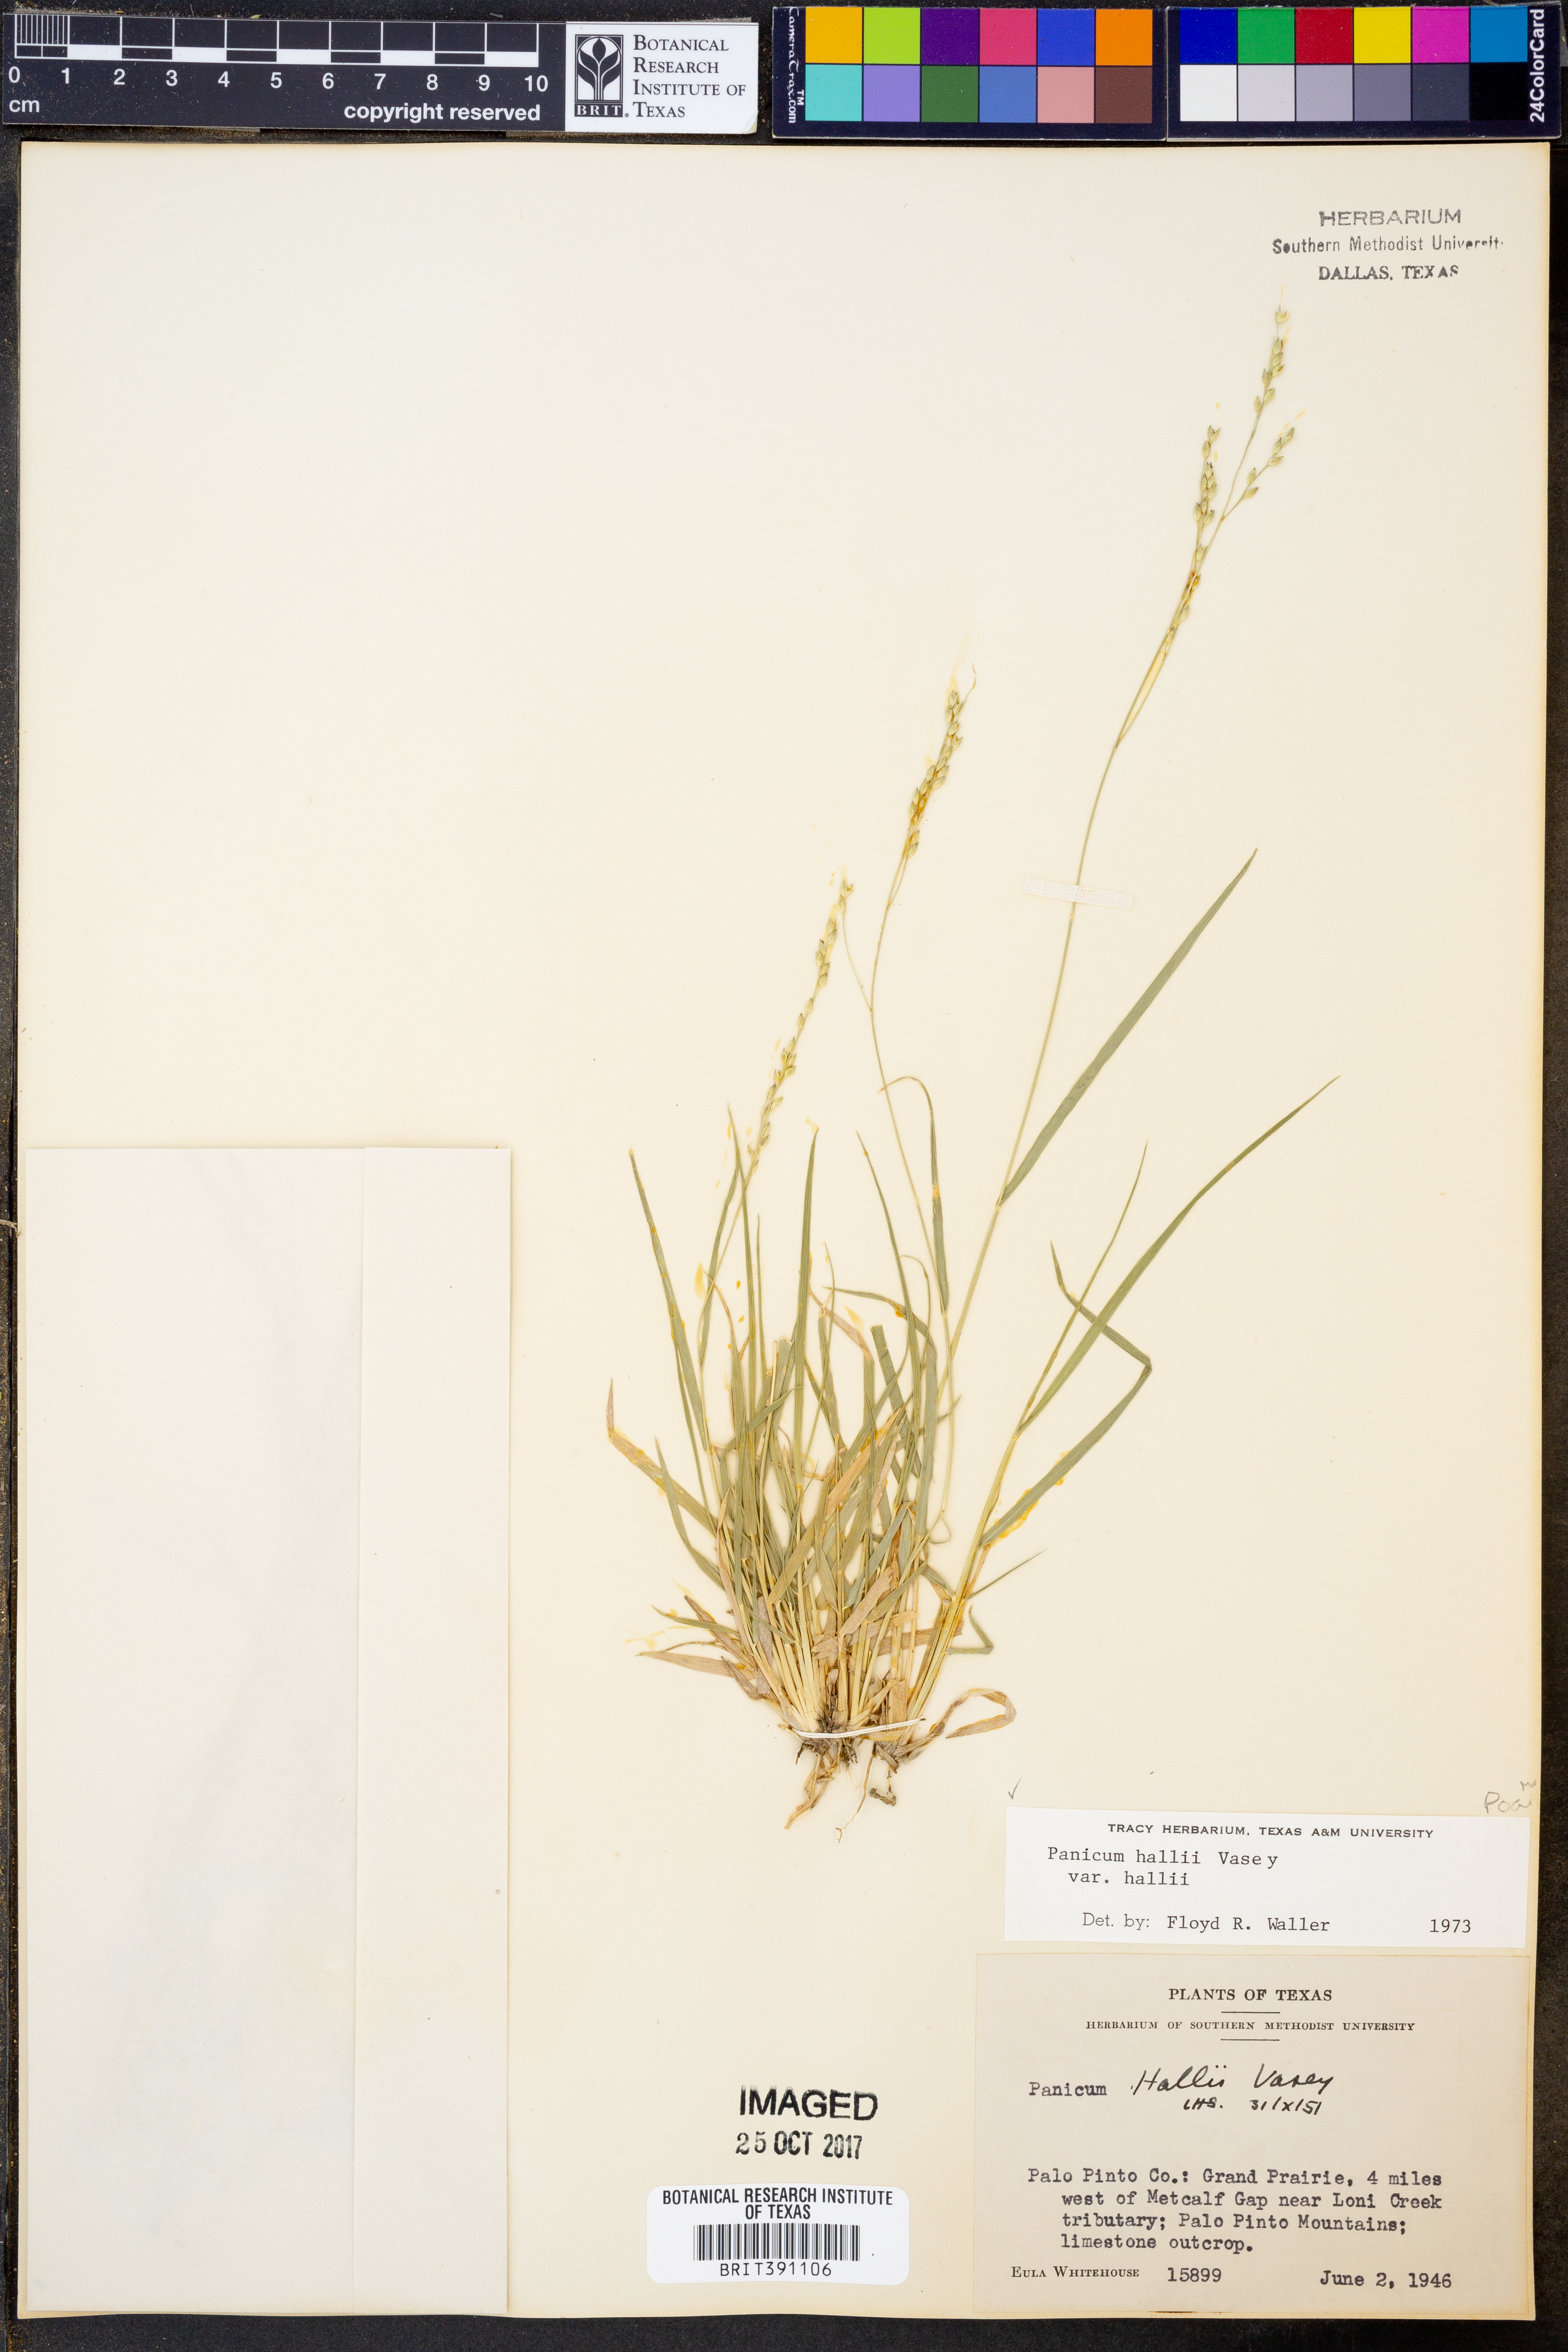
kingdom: Plantae
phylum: Tracheophyta
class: Liliopsida
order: Poales
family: Poaceae
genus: Panicum
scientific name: Panicum hallii
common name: Hall's witchgrass
